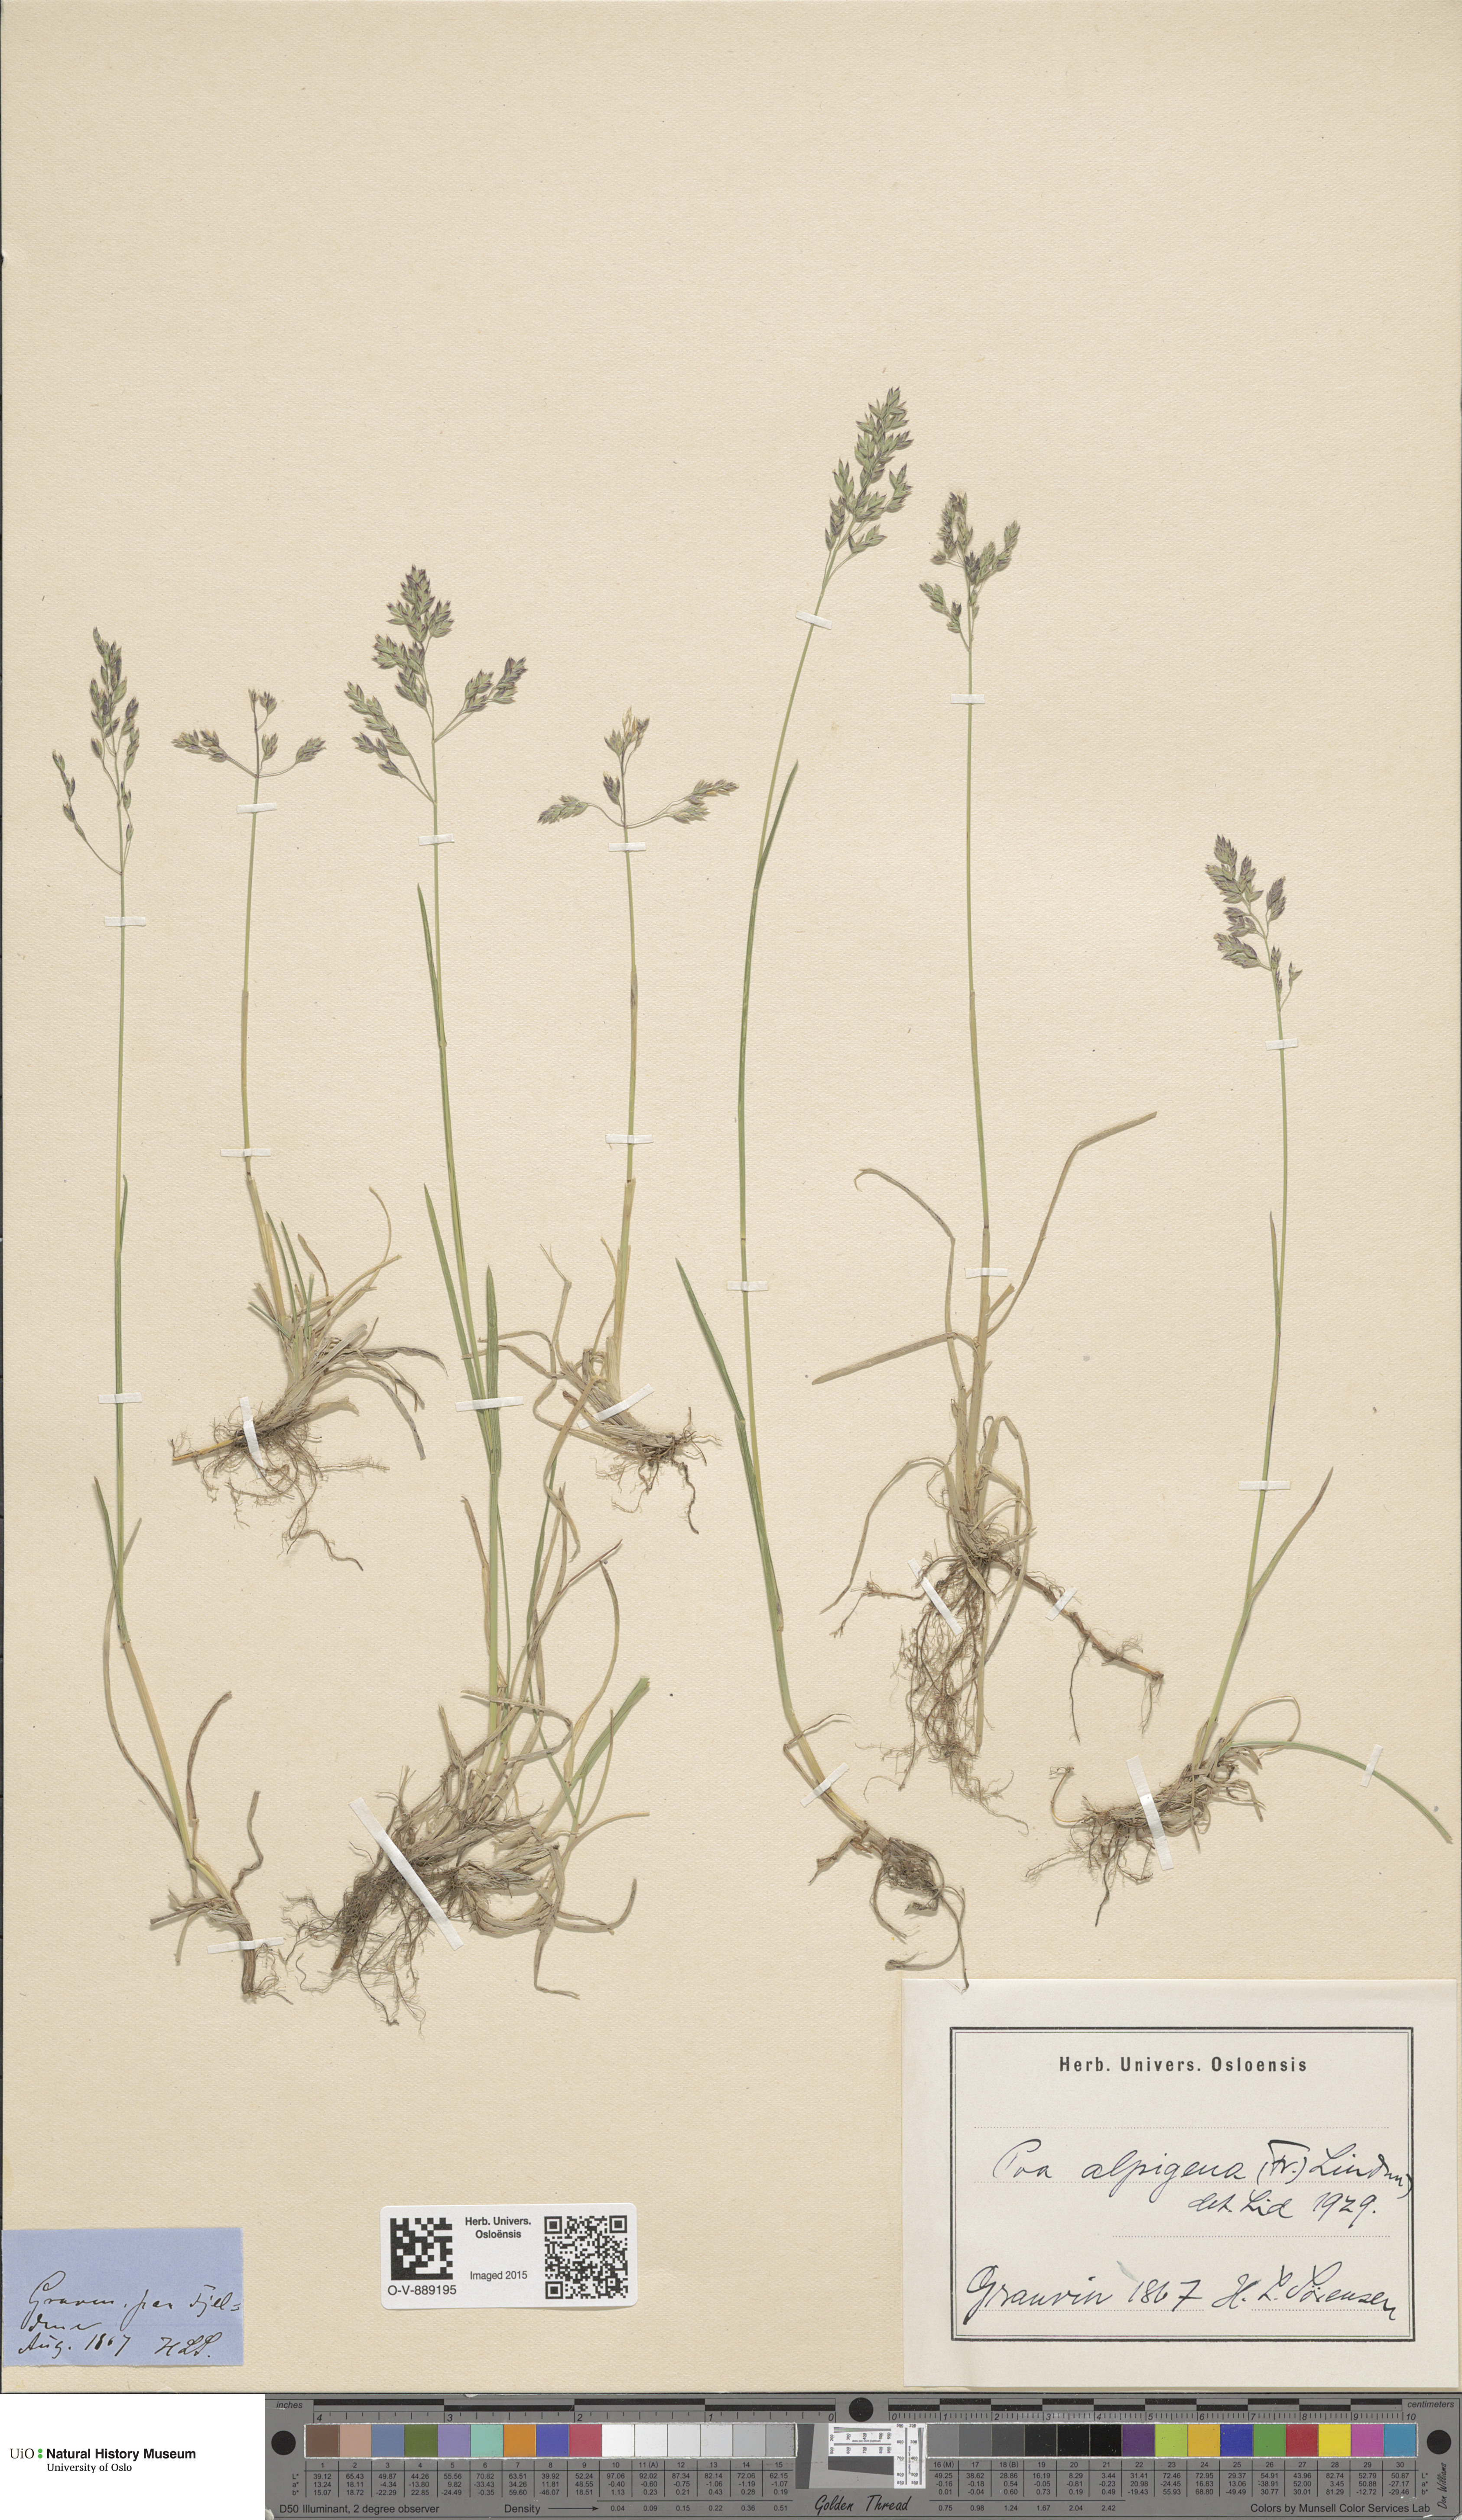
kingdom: Plantae
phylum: Tracheophyta
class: Liliopsida
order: Poales
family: Poaceae
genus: Poa
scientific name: Poa alpigena
